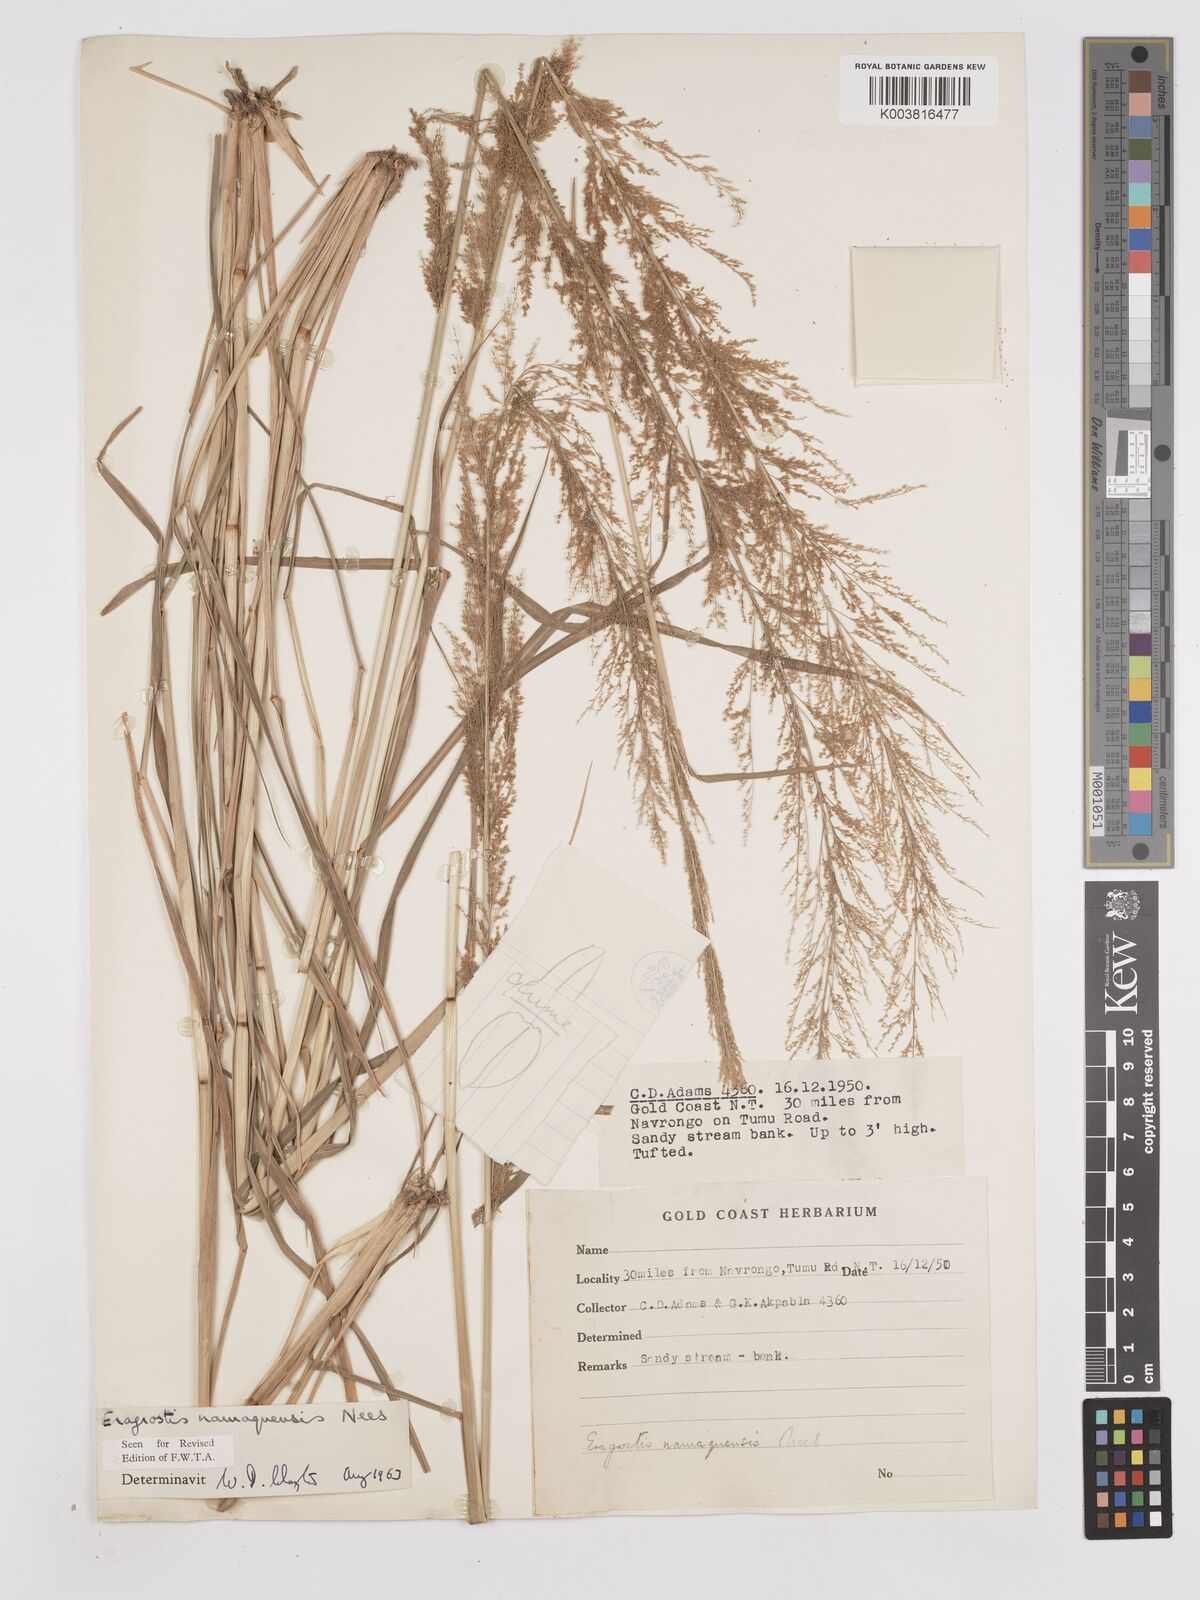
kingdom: Plantae
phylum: Tracheophyta
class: Liliopsida
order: Poales
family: Poaceae
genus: Eragrostis
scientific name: Eragrostis japonica
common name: Pond lovegrass
